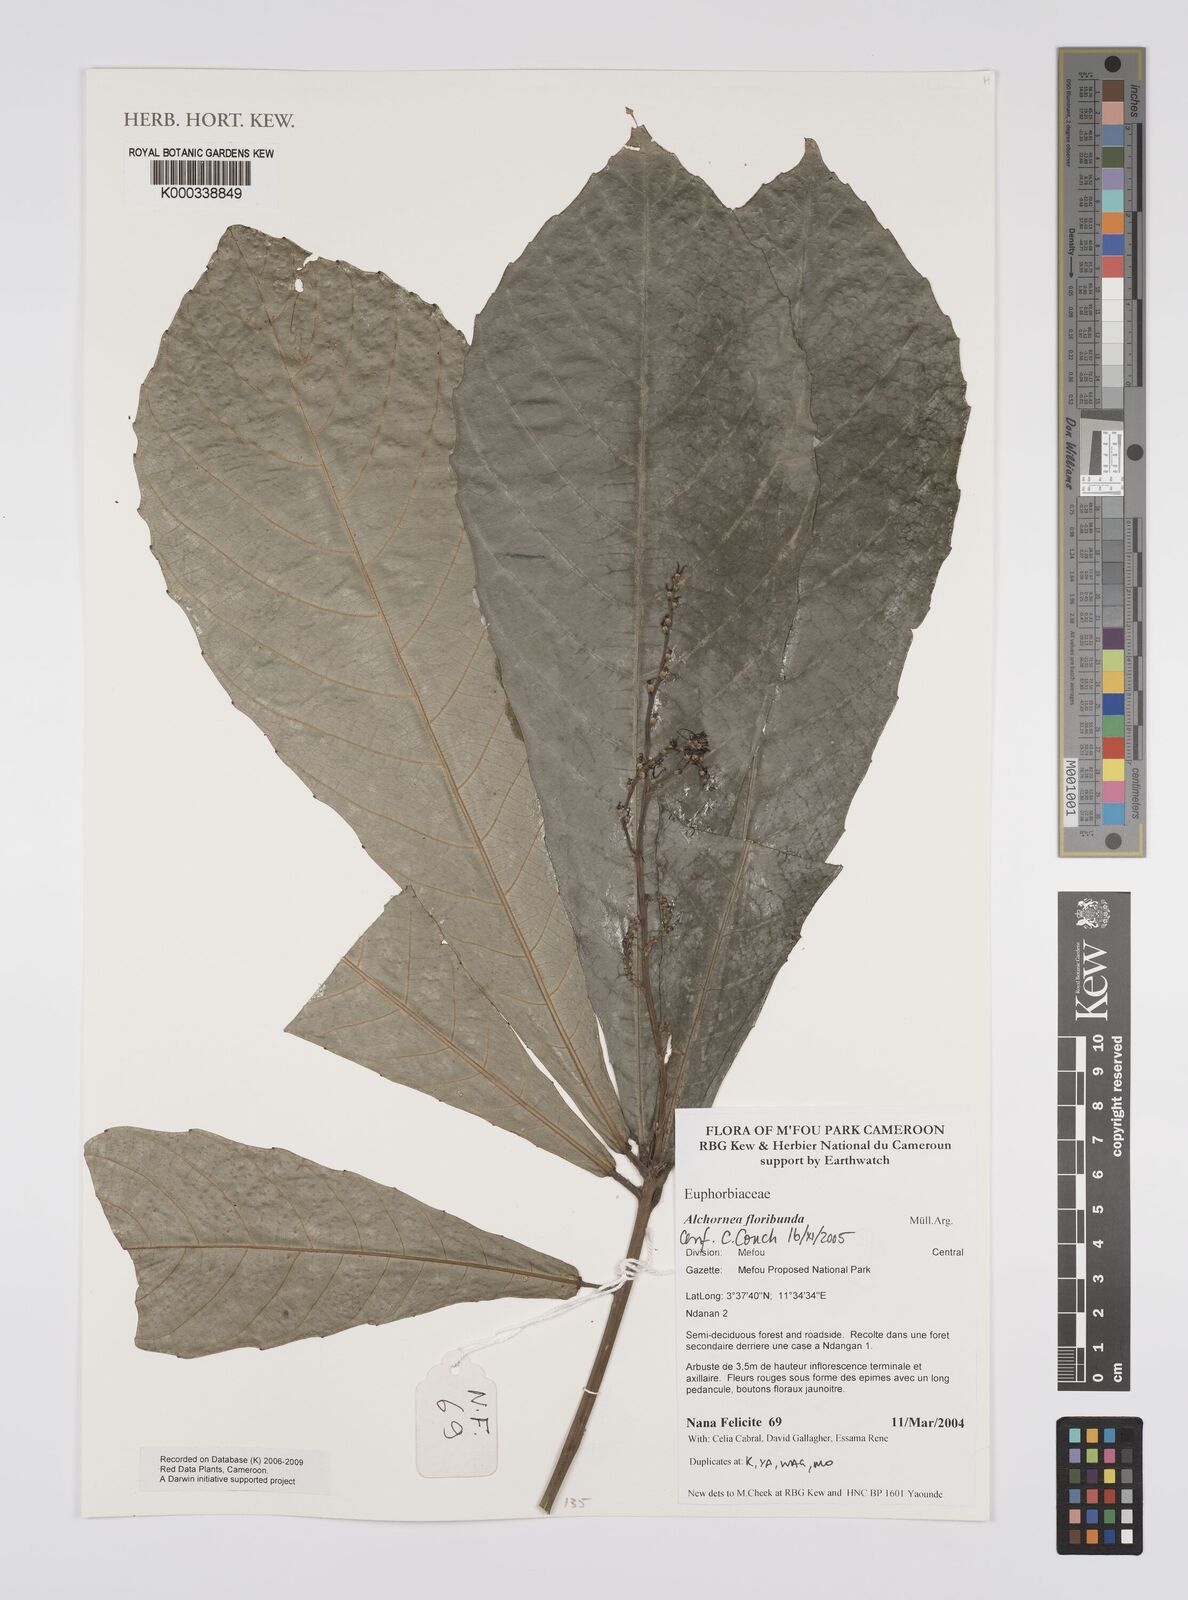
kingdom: Plantae
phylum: Tracheophyta
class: Magnoliopsida
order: Malpighiales
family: Euphorbiaceae
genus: Alchornea
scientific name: Alchornea
